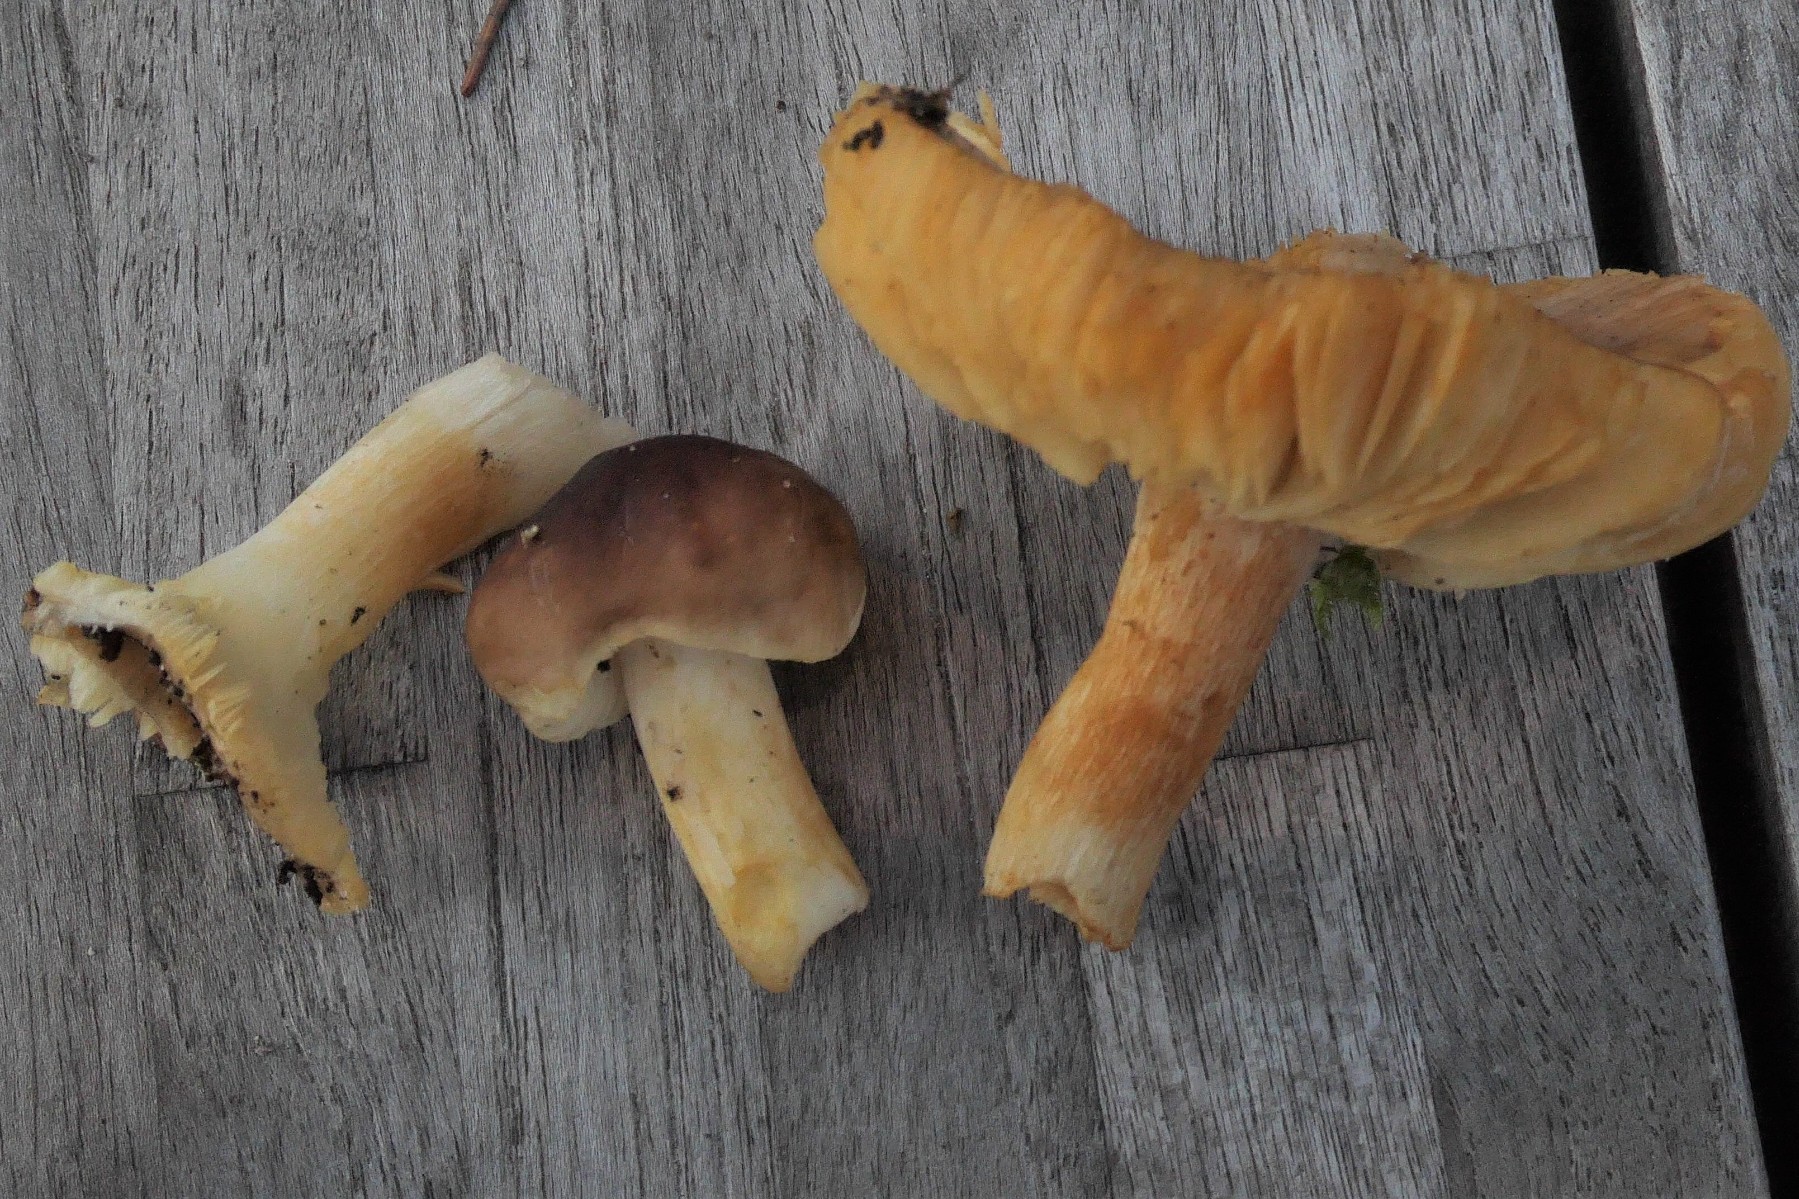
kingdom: Fungi
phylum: Basidiomycota
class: Agaricomycetes
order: Russulales
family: Russulaceae
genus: Russula
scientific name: Russula puellaris
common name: gulstokket skørhat
